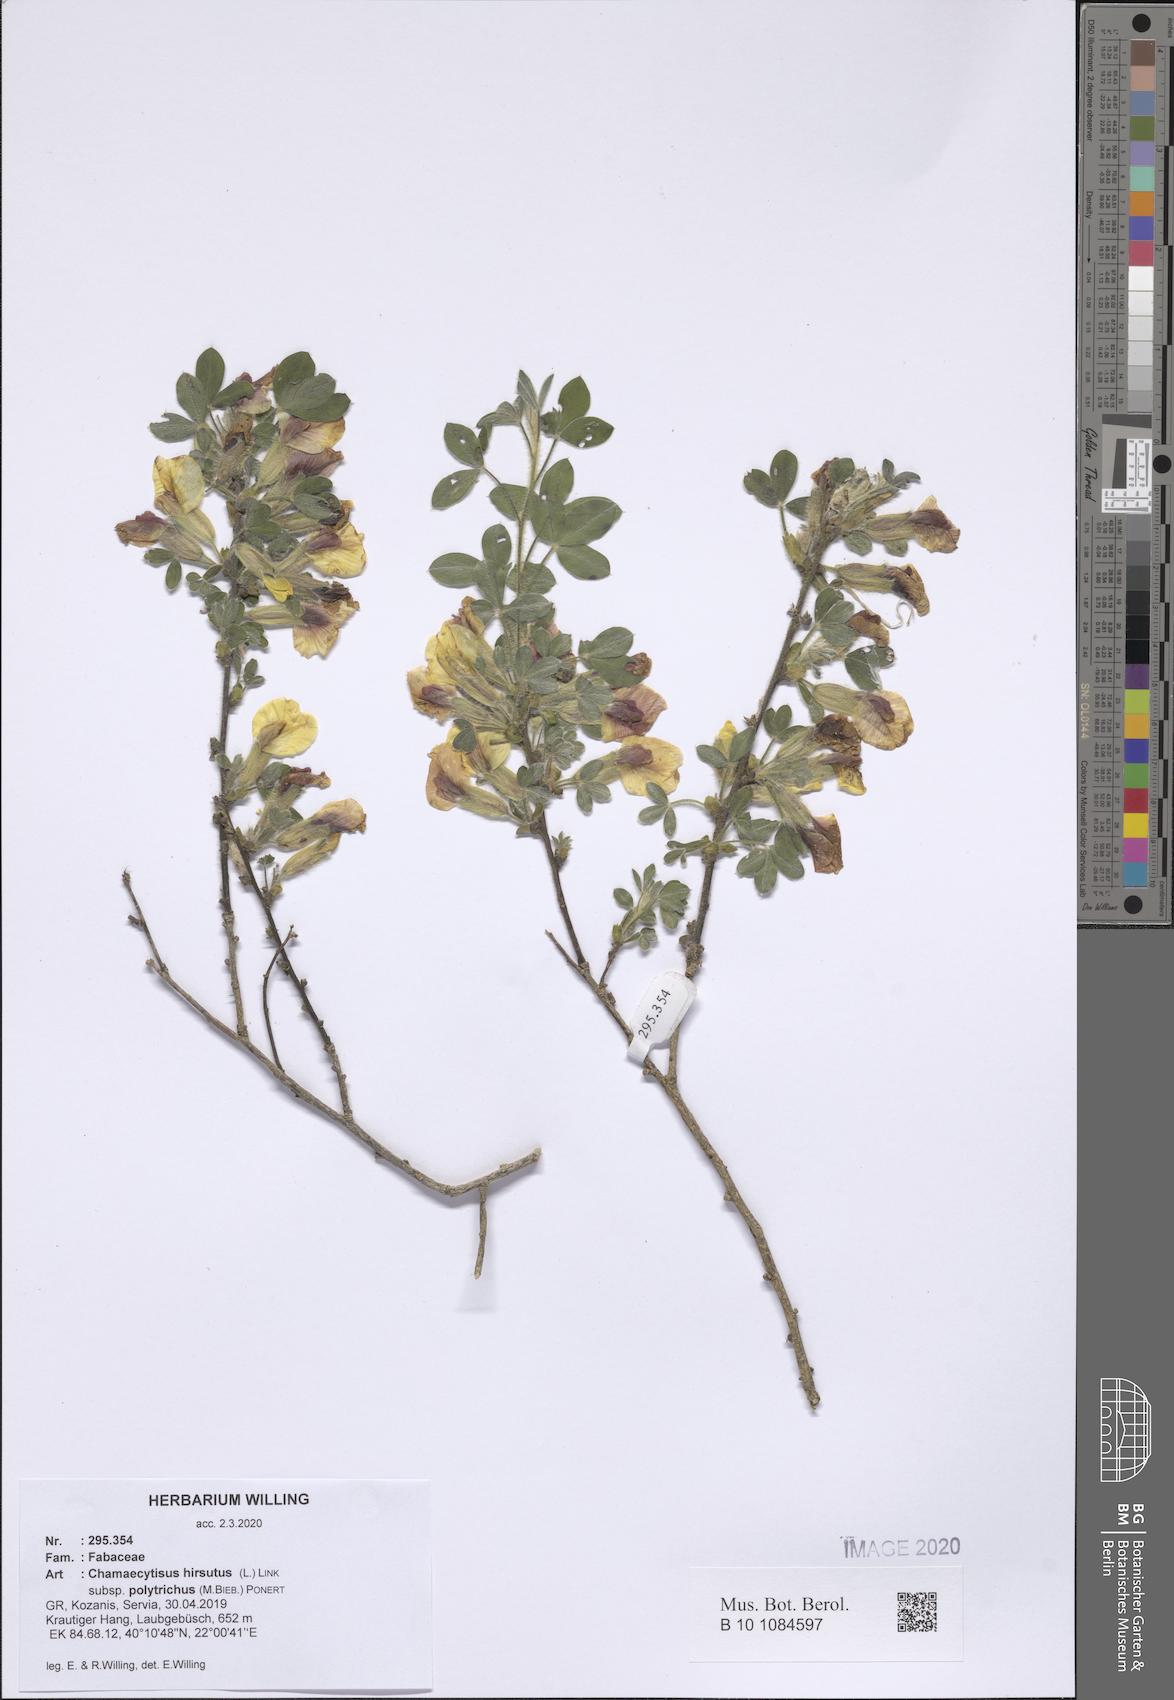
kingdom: Plantae
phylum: Tracheophyta
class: Magnoliopsida
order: Fabales
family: Fabaceae
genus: Chamaecytisus
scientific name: Chamaecytisus hirsutus
